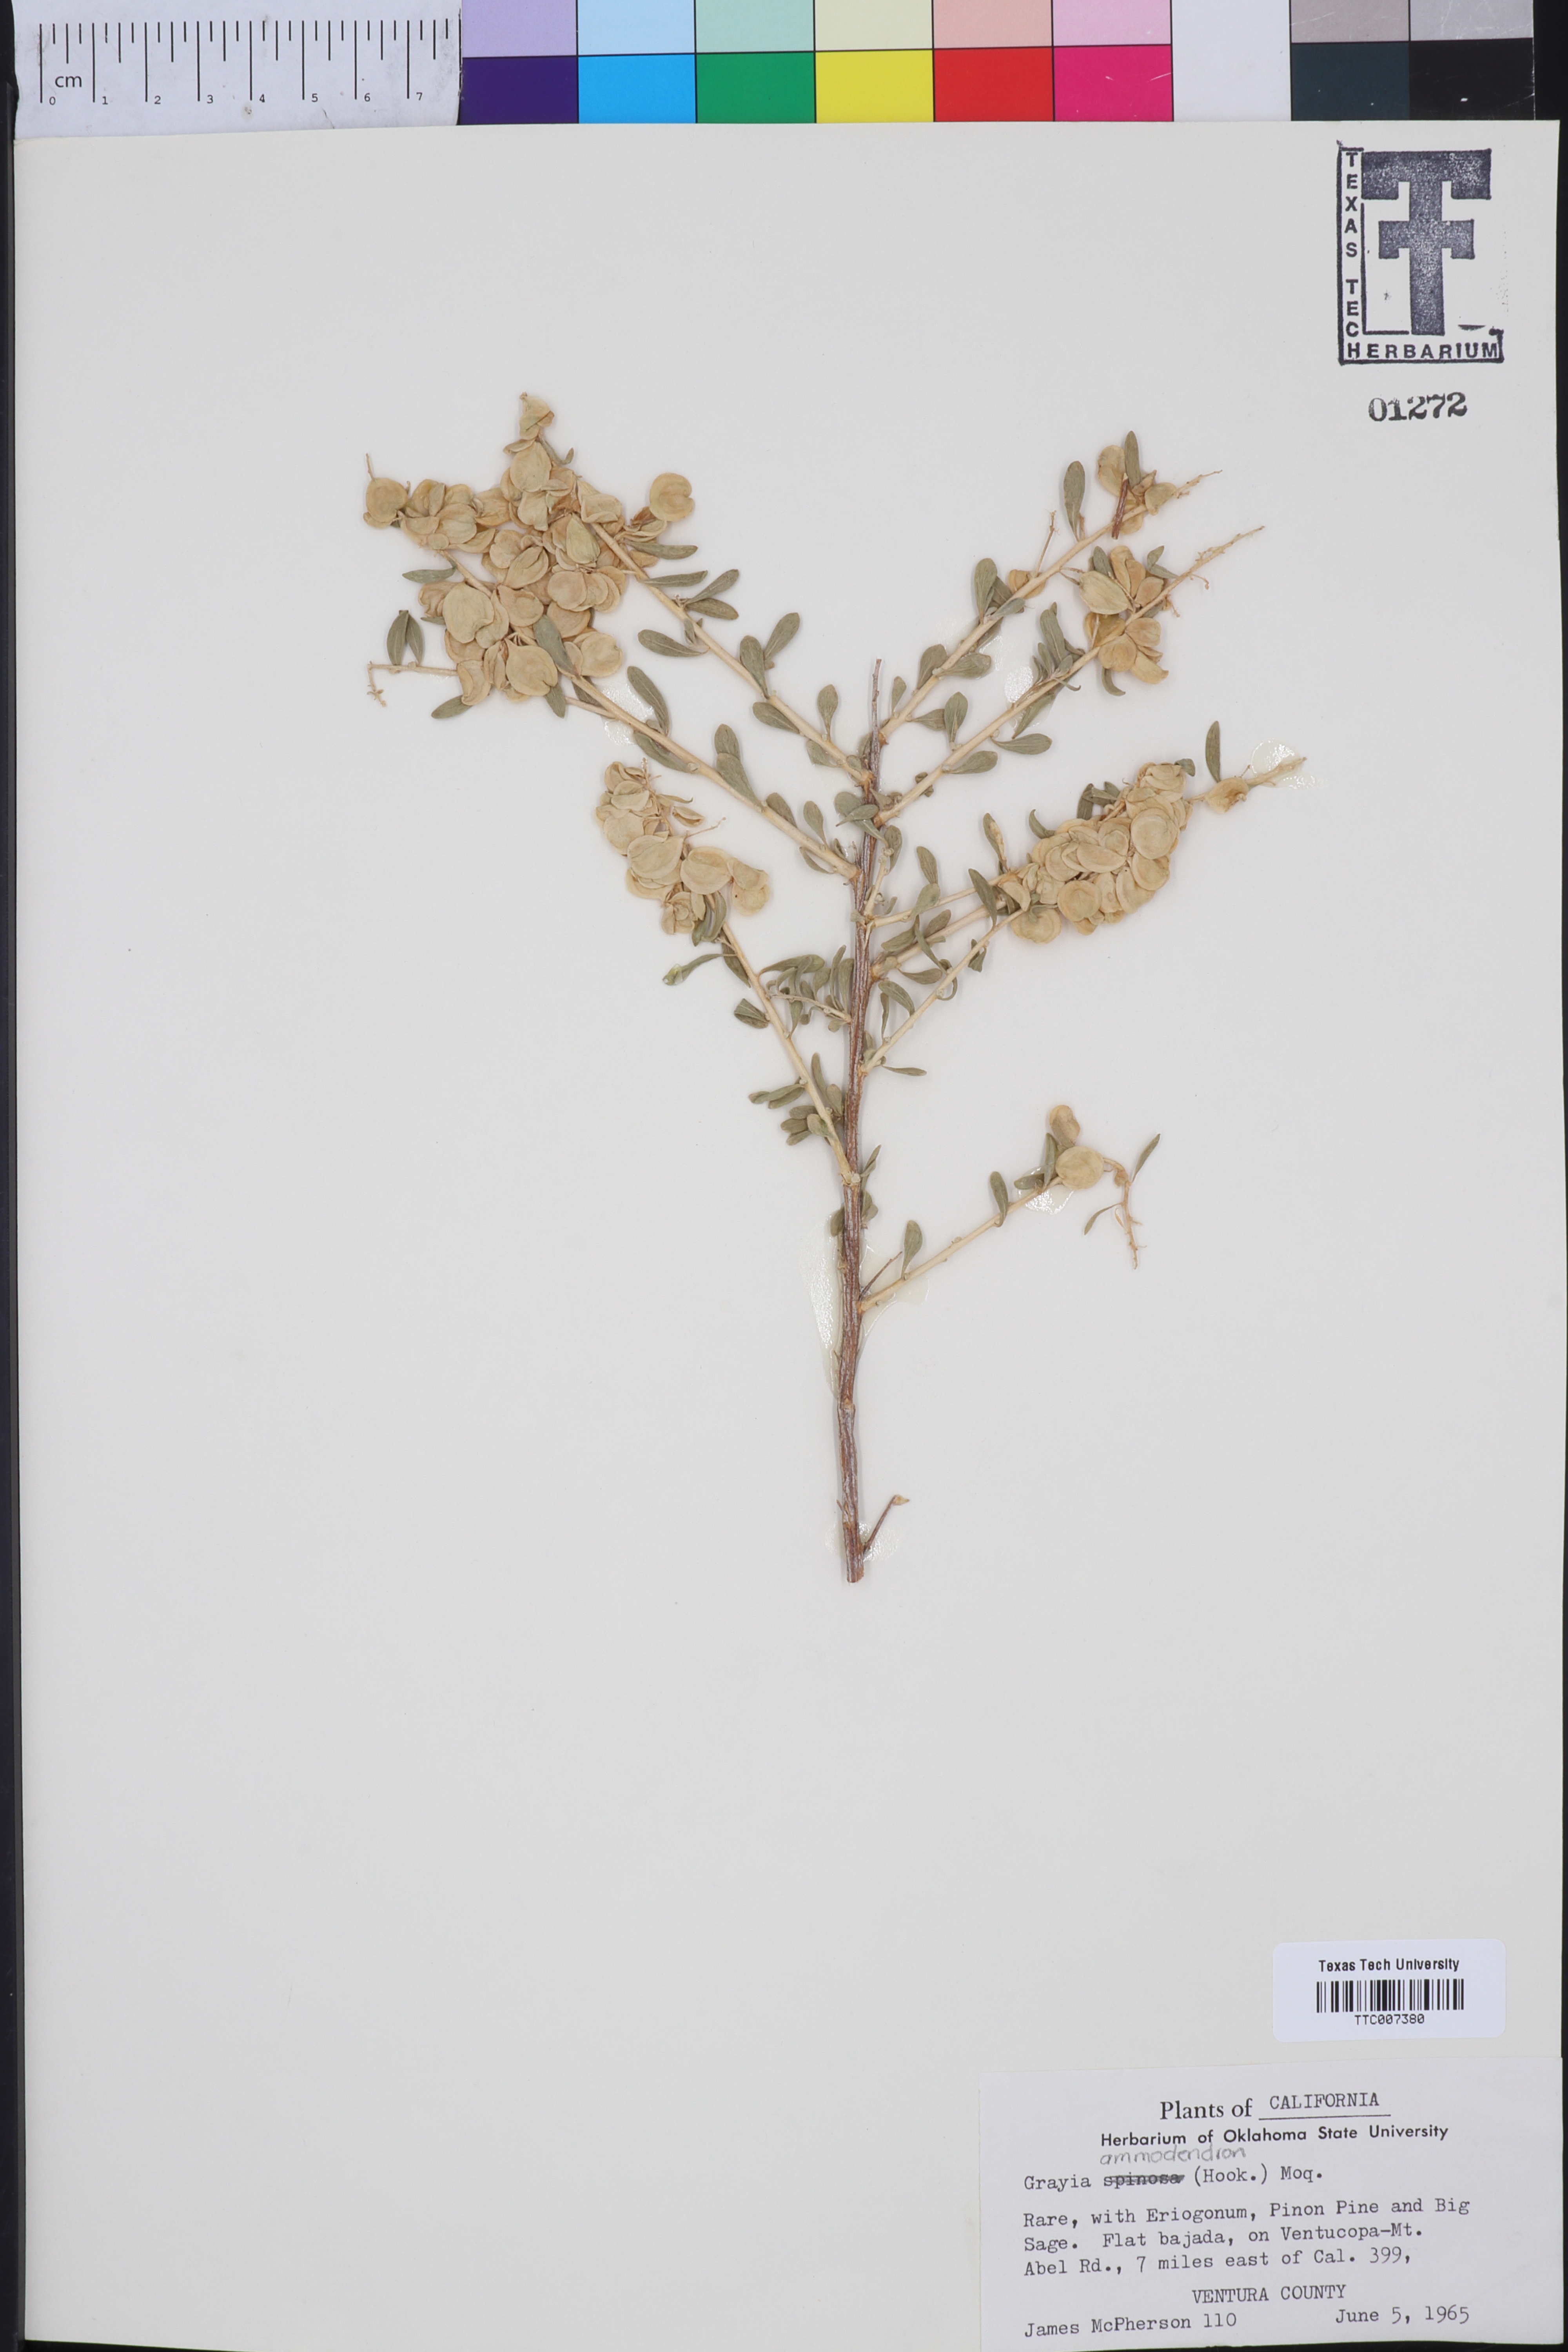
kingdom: Plantae
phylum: Tracheophyta
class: Magnoliopsida
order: Caryophyllales
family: Amaranthaceae
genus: Grayia
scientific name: Grayia spinosa
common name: Spiny hopsage
